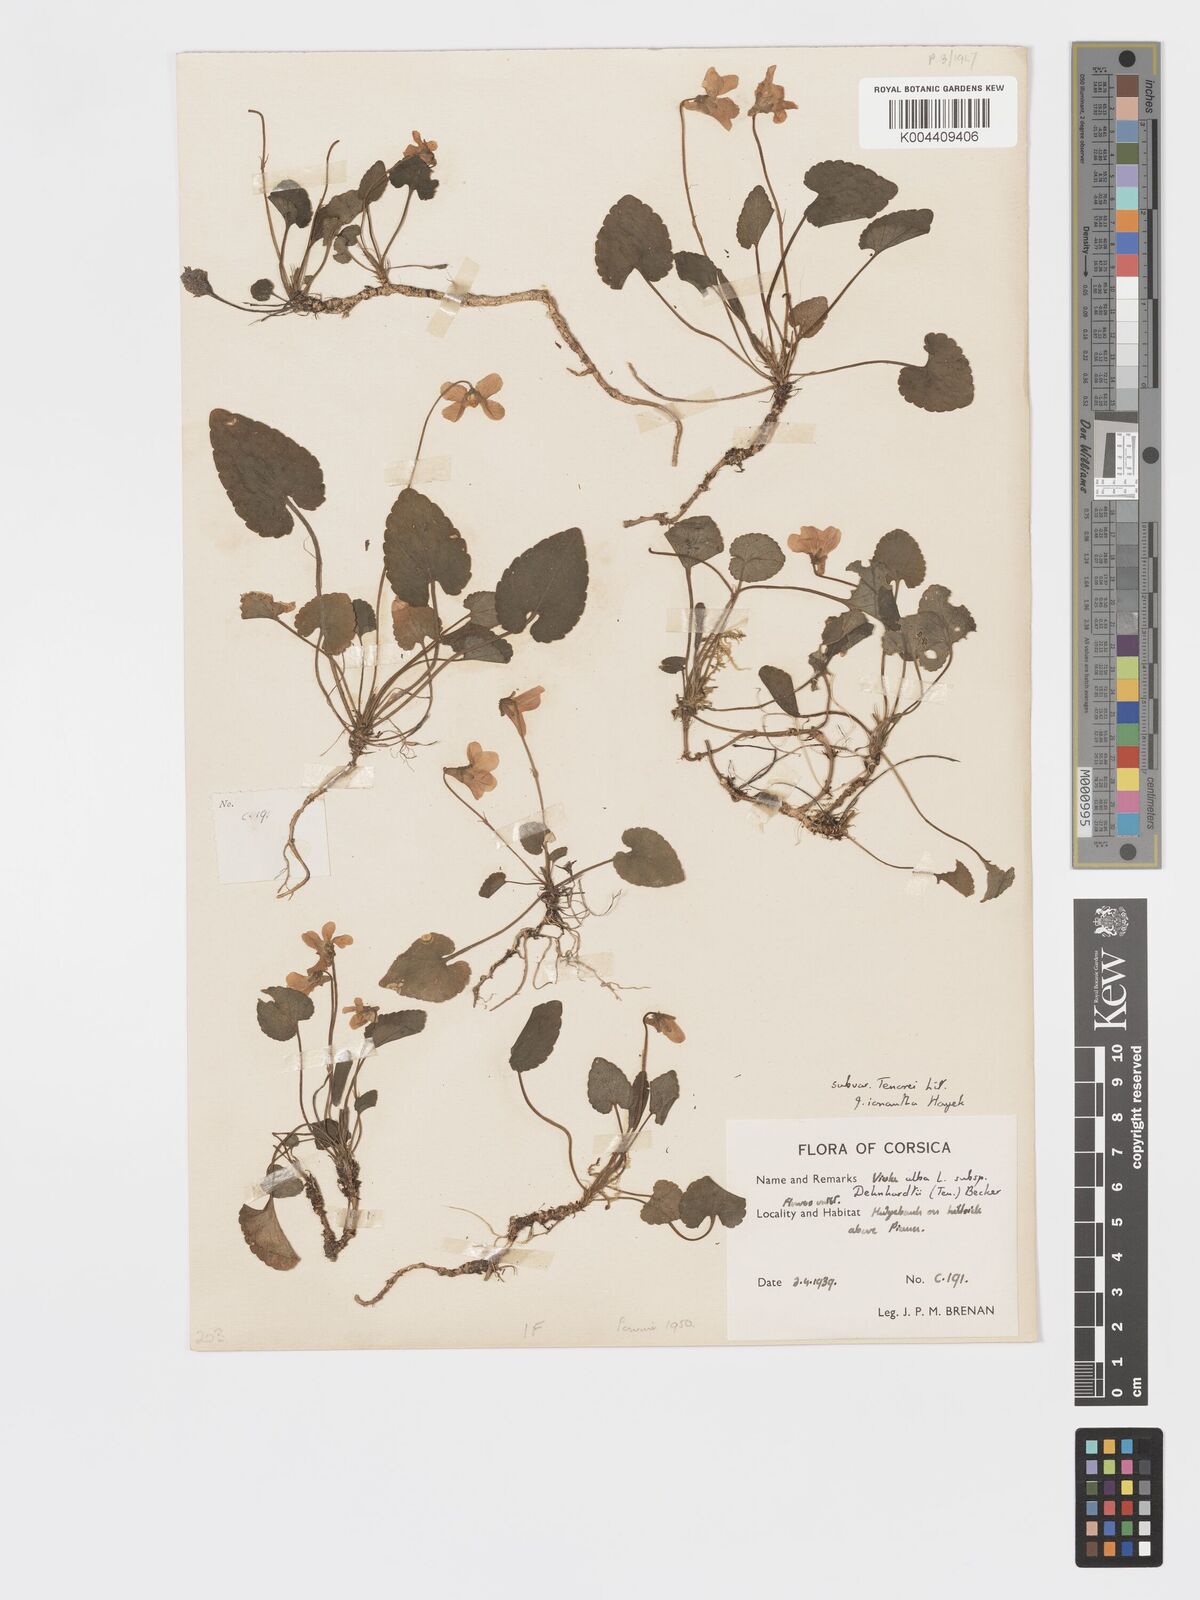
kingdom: Plantae
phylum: Tracheophyta
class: Magnoliopsida
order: Malpighiales
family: Violaceae
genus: Viola
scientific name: Viola alba
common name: White violet
